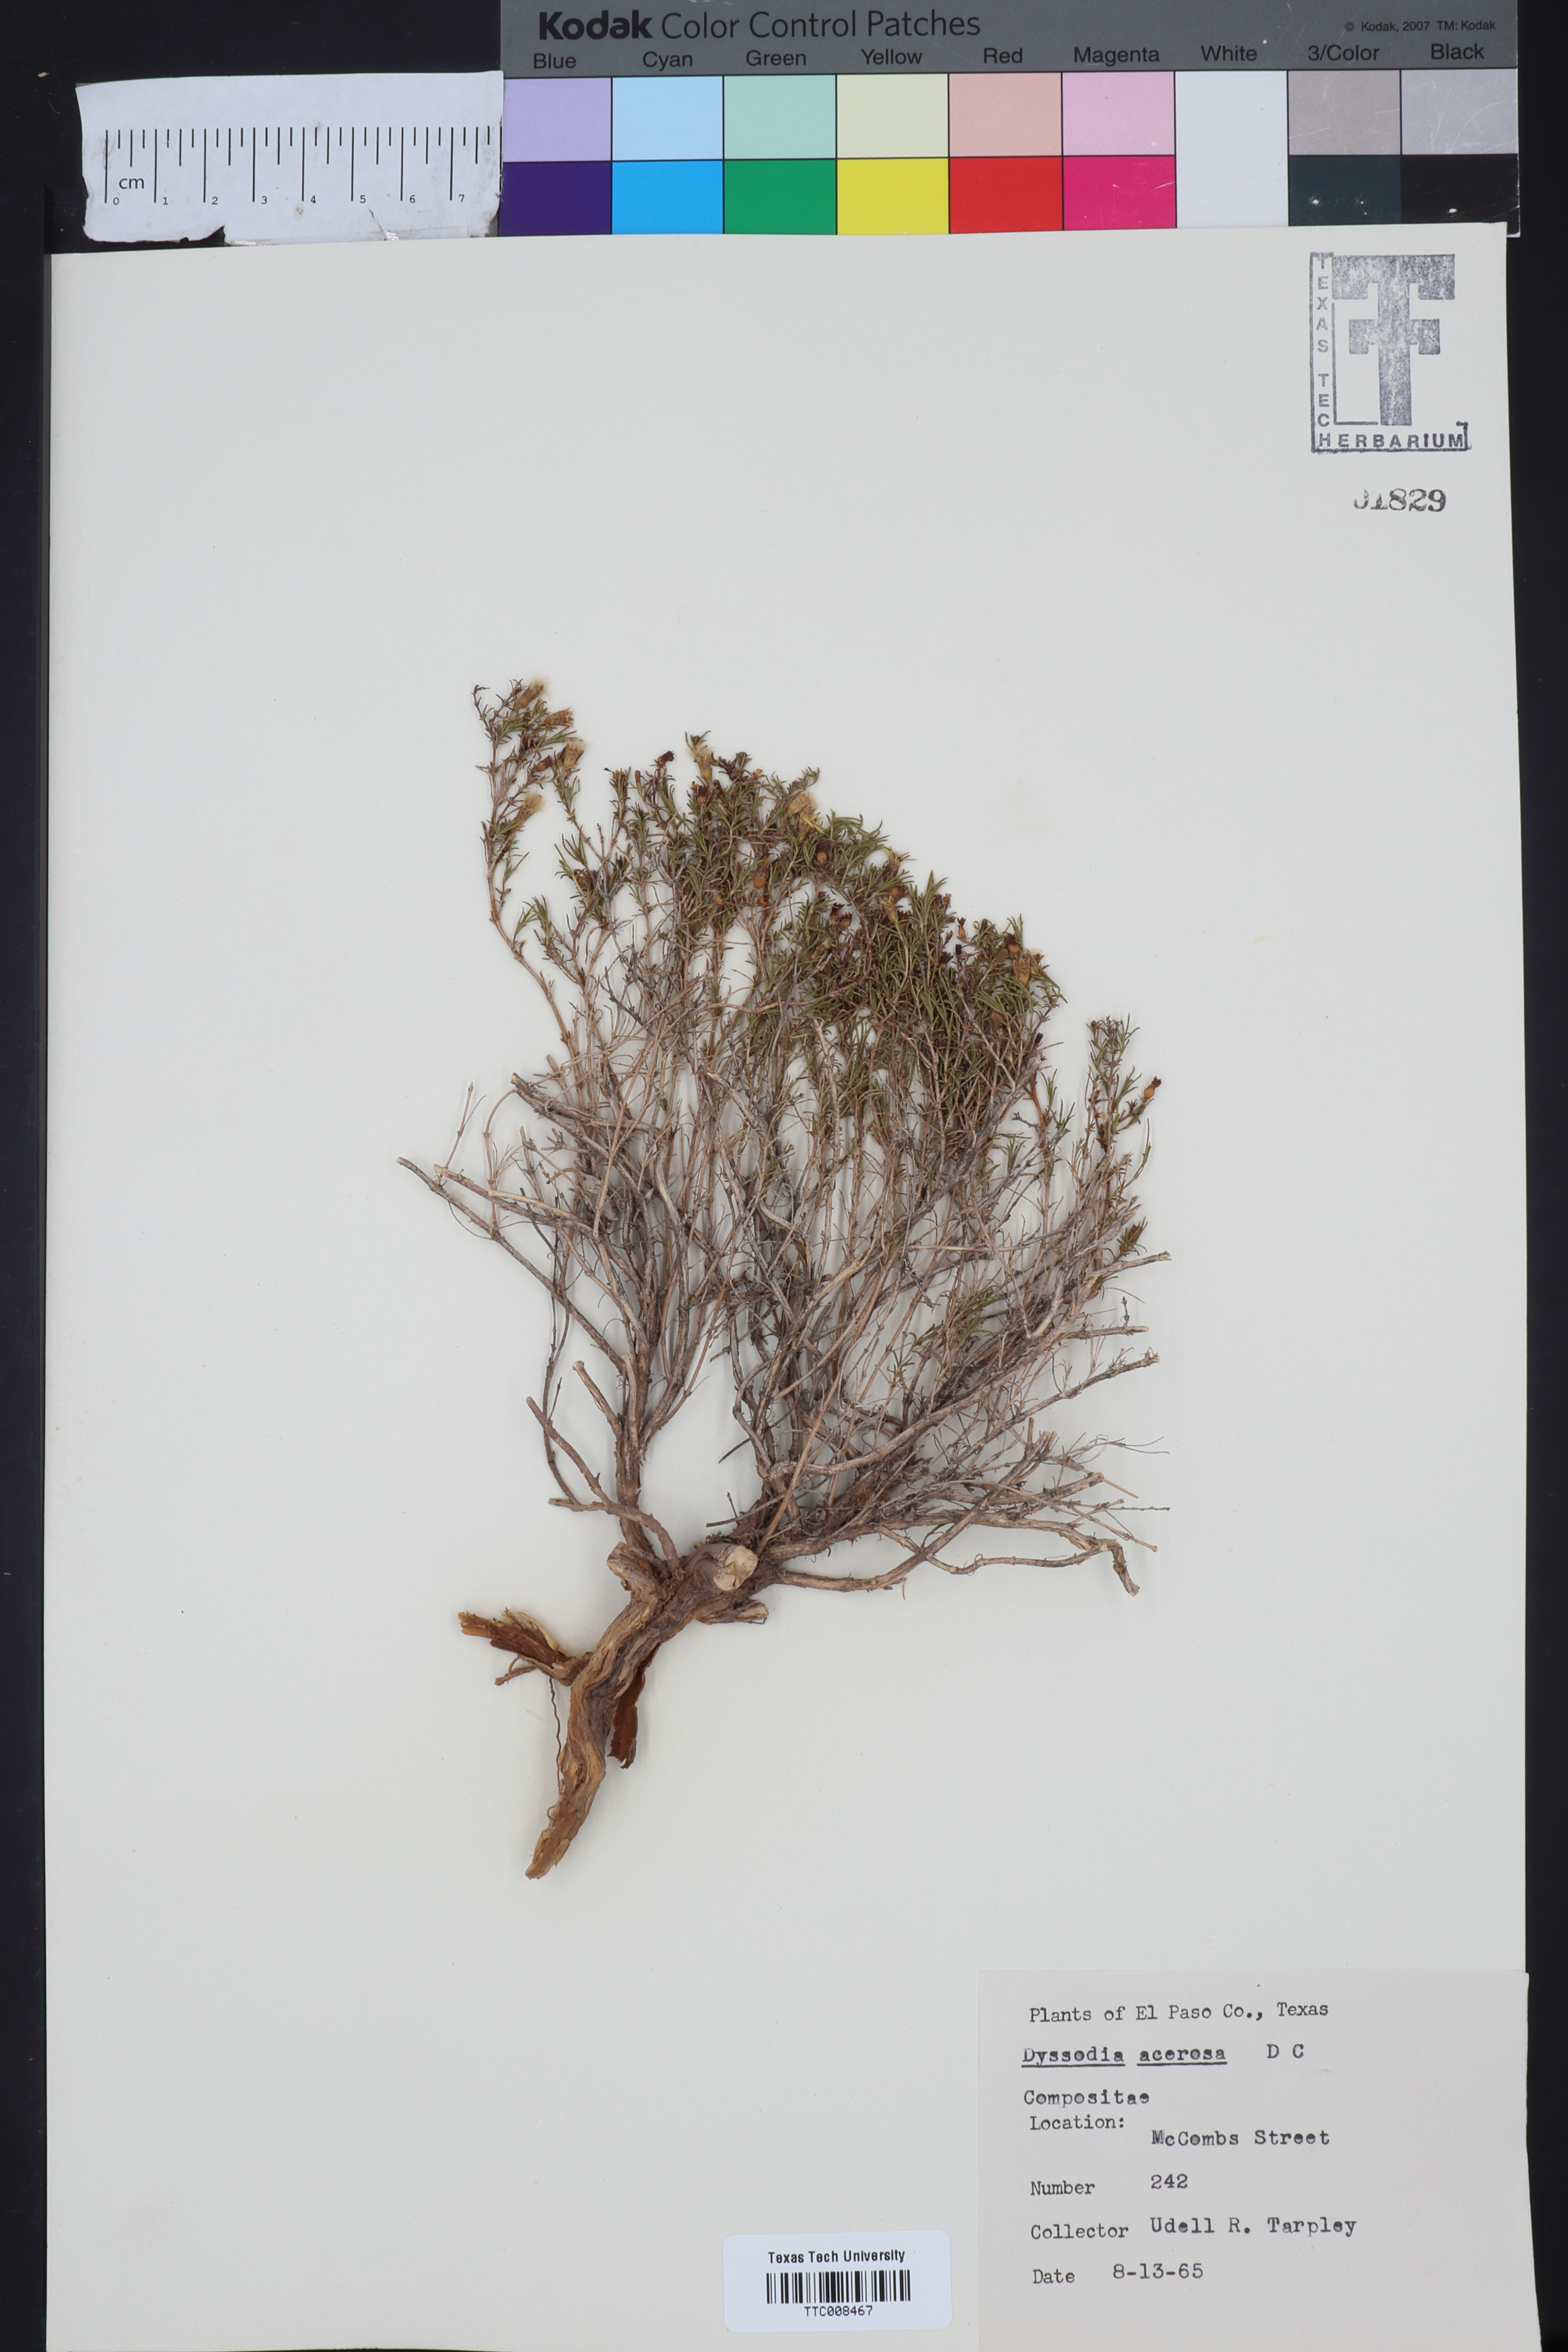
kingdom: Plantae
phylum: Tracheophyta
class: Magnoliopsida
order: Asterales
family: Asteraceae
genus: Thymophylla
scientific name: Thymophylla acerosa
